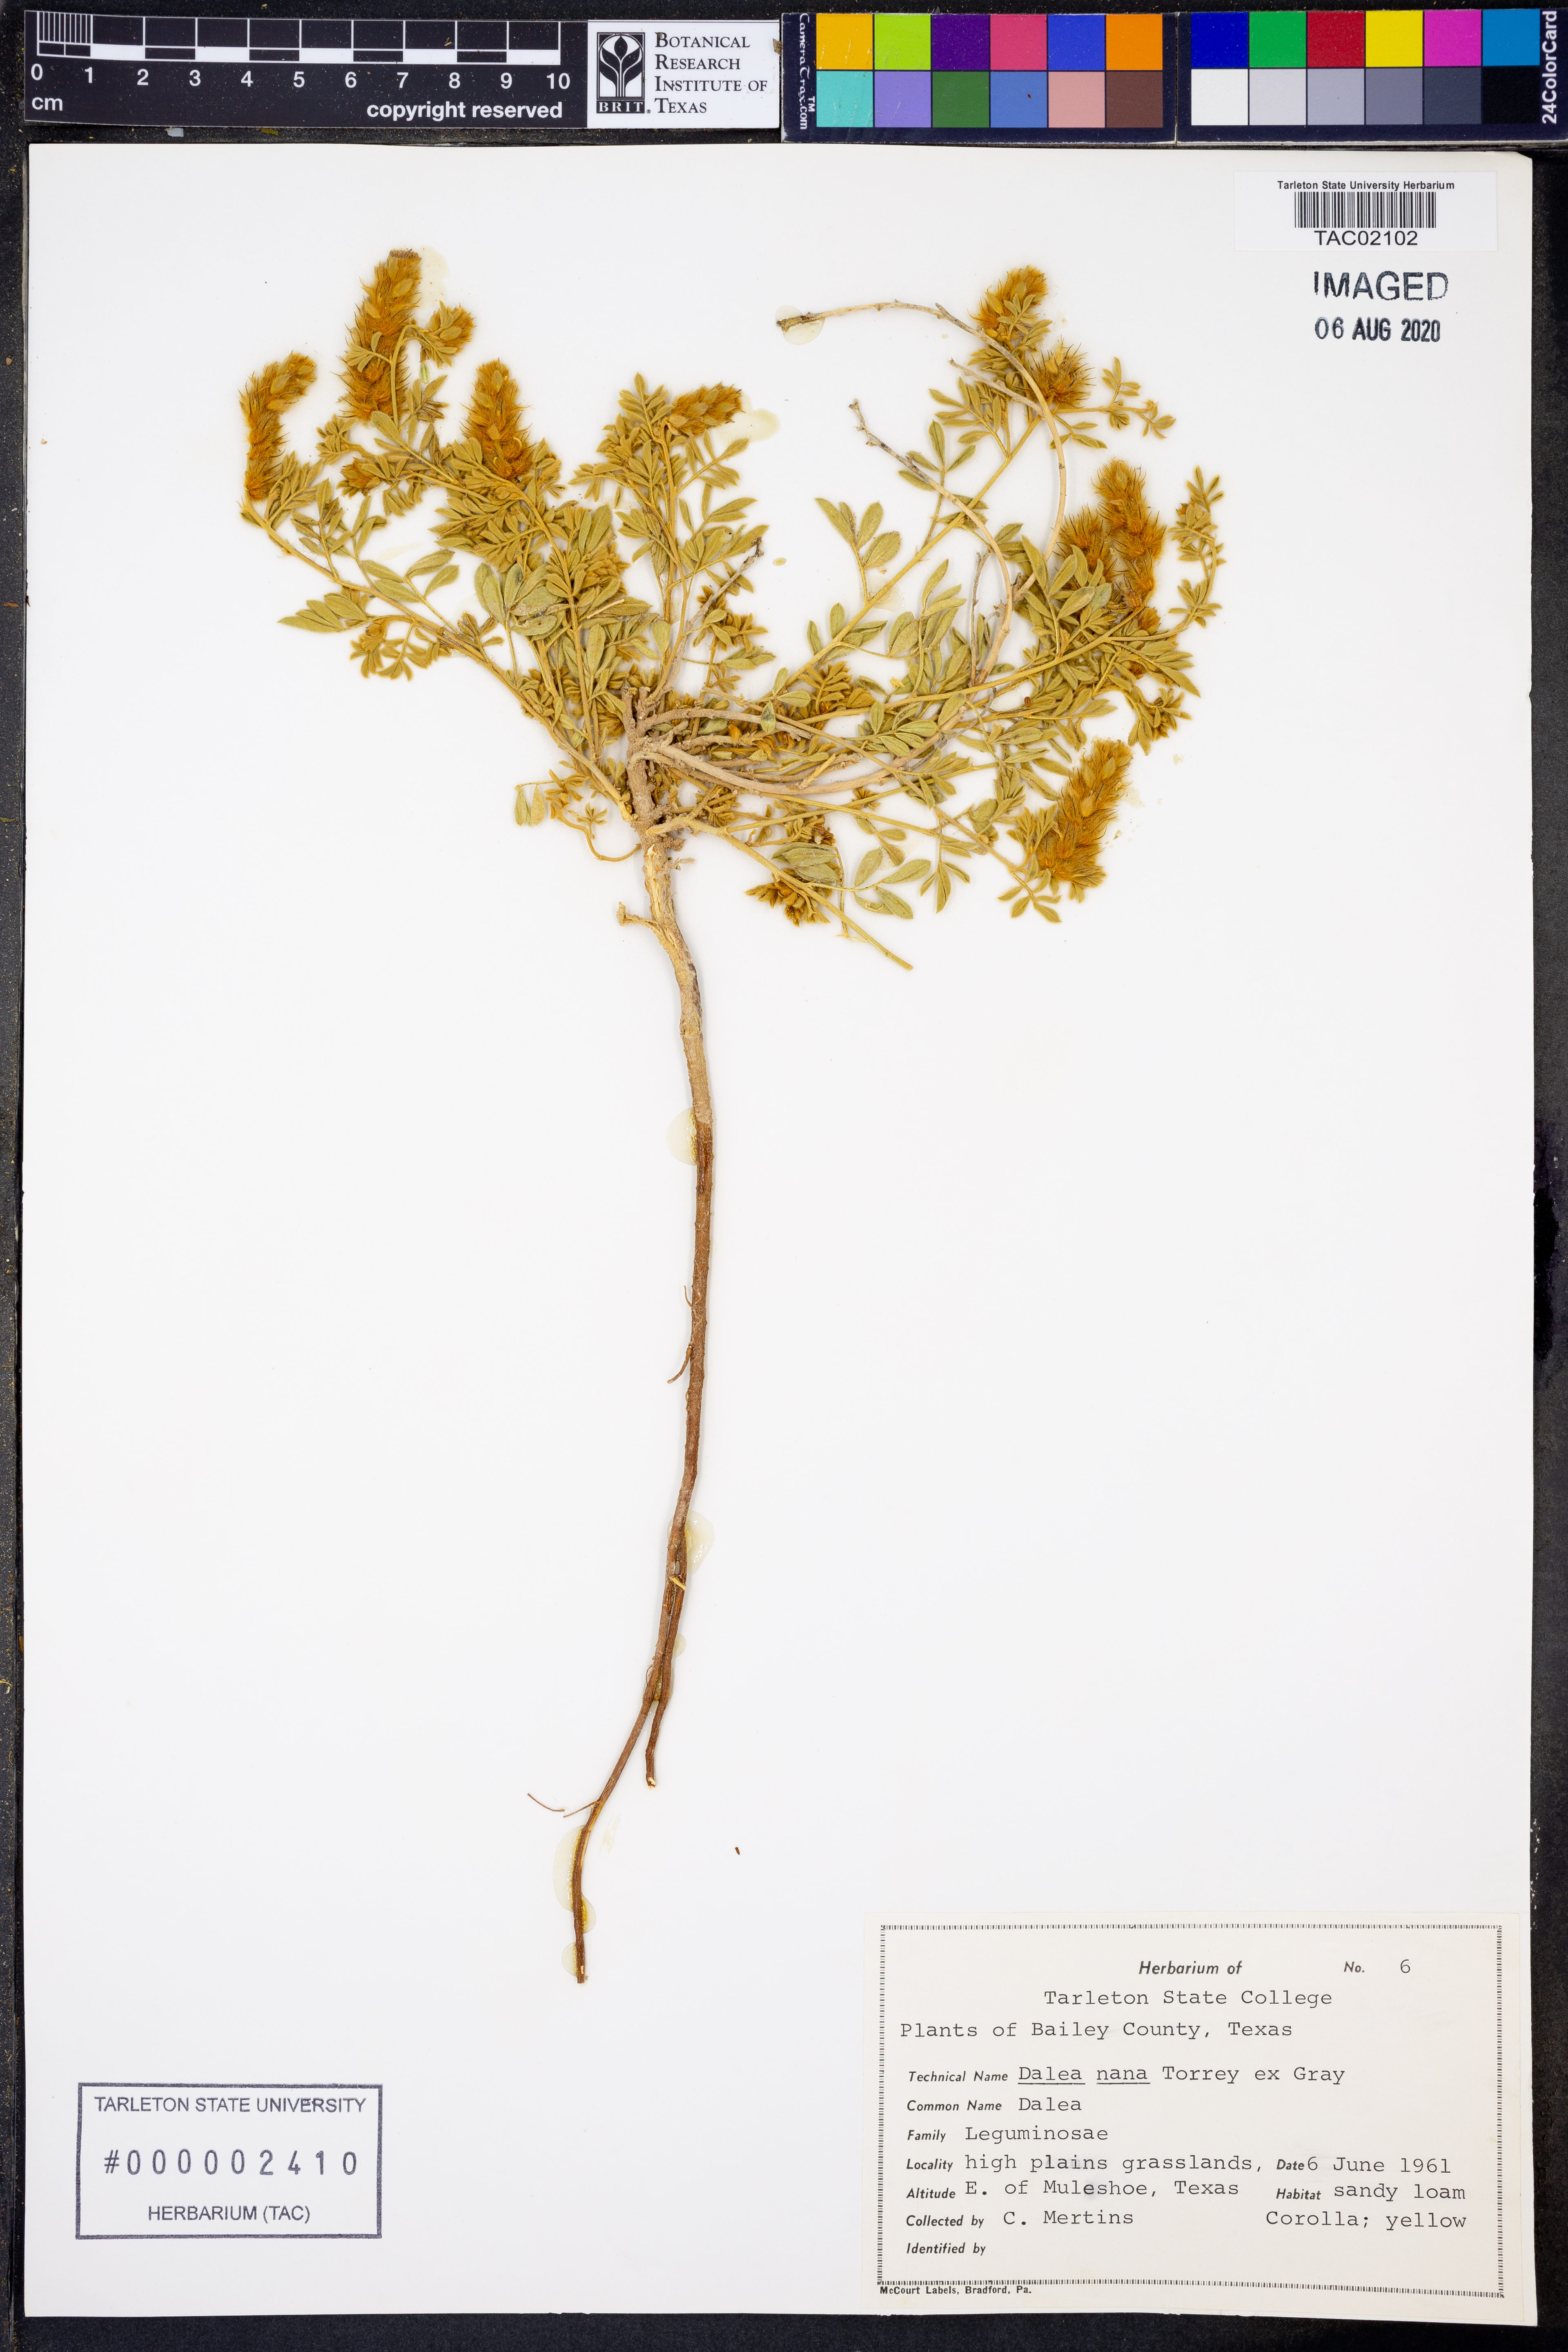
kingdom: Plantae
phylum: Tracheophyta
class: Magnoliopsida
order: Fabales
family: Fabaceae
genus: Dalea
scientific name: Dalea nana
